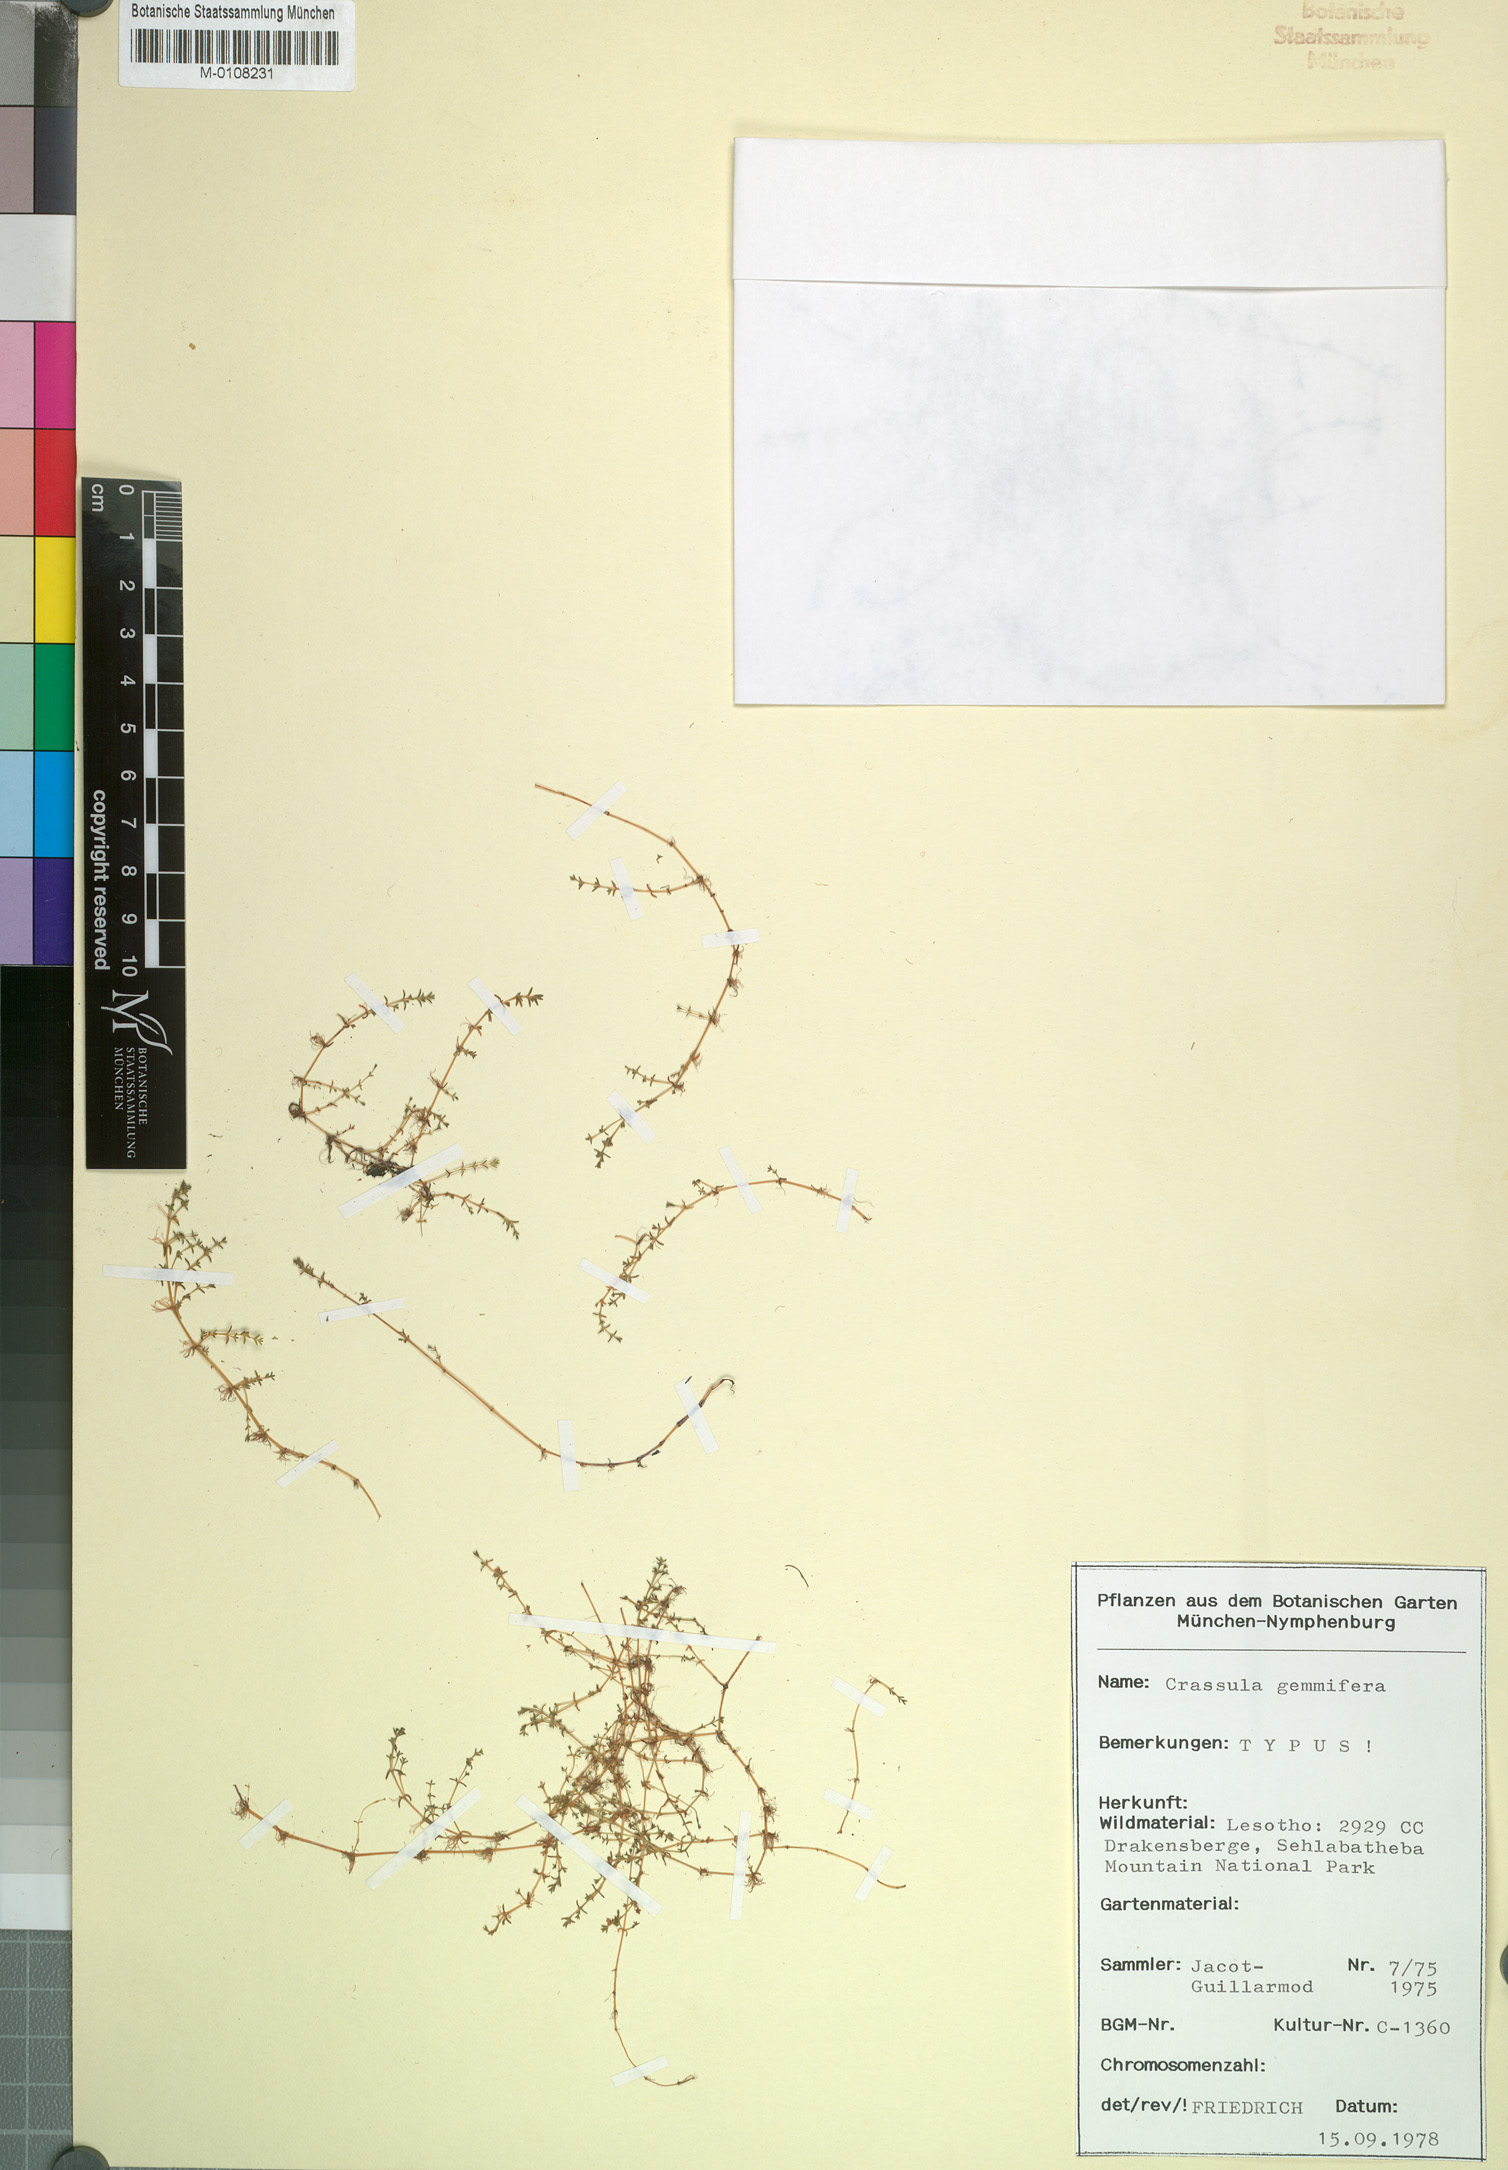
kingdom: Plantae
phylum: Tracheophyta
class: Magnoliopsida
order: Saxifragales
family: Crassulaceae
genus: Crassula
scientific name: Crassula gemmifera
